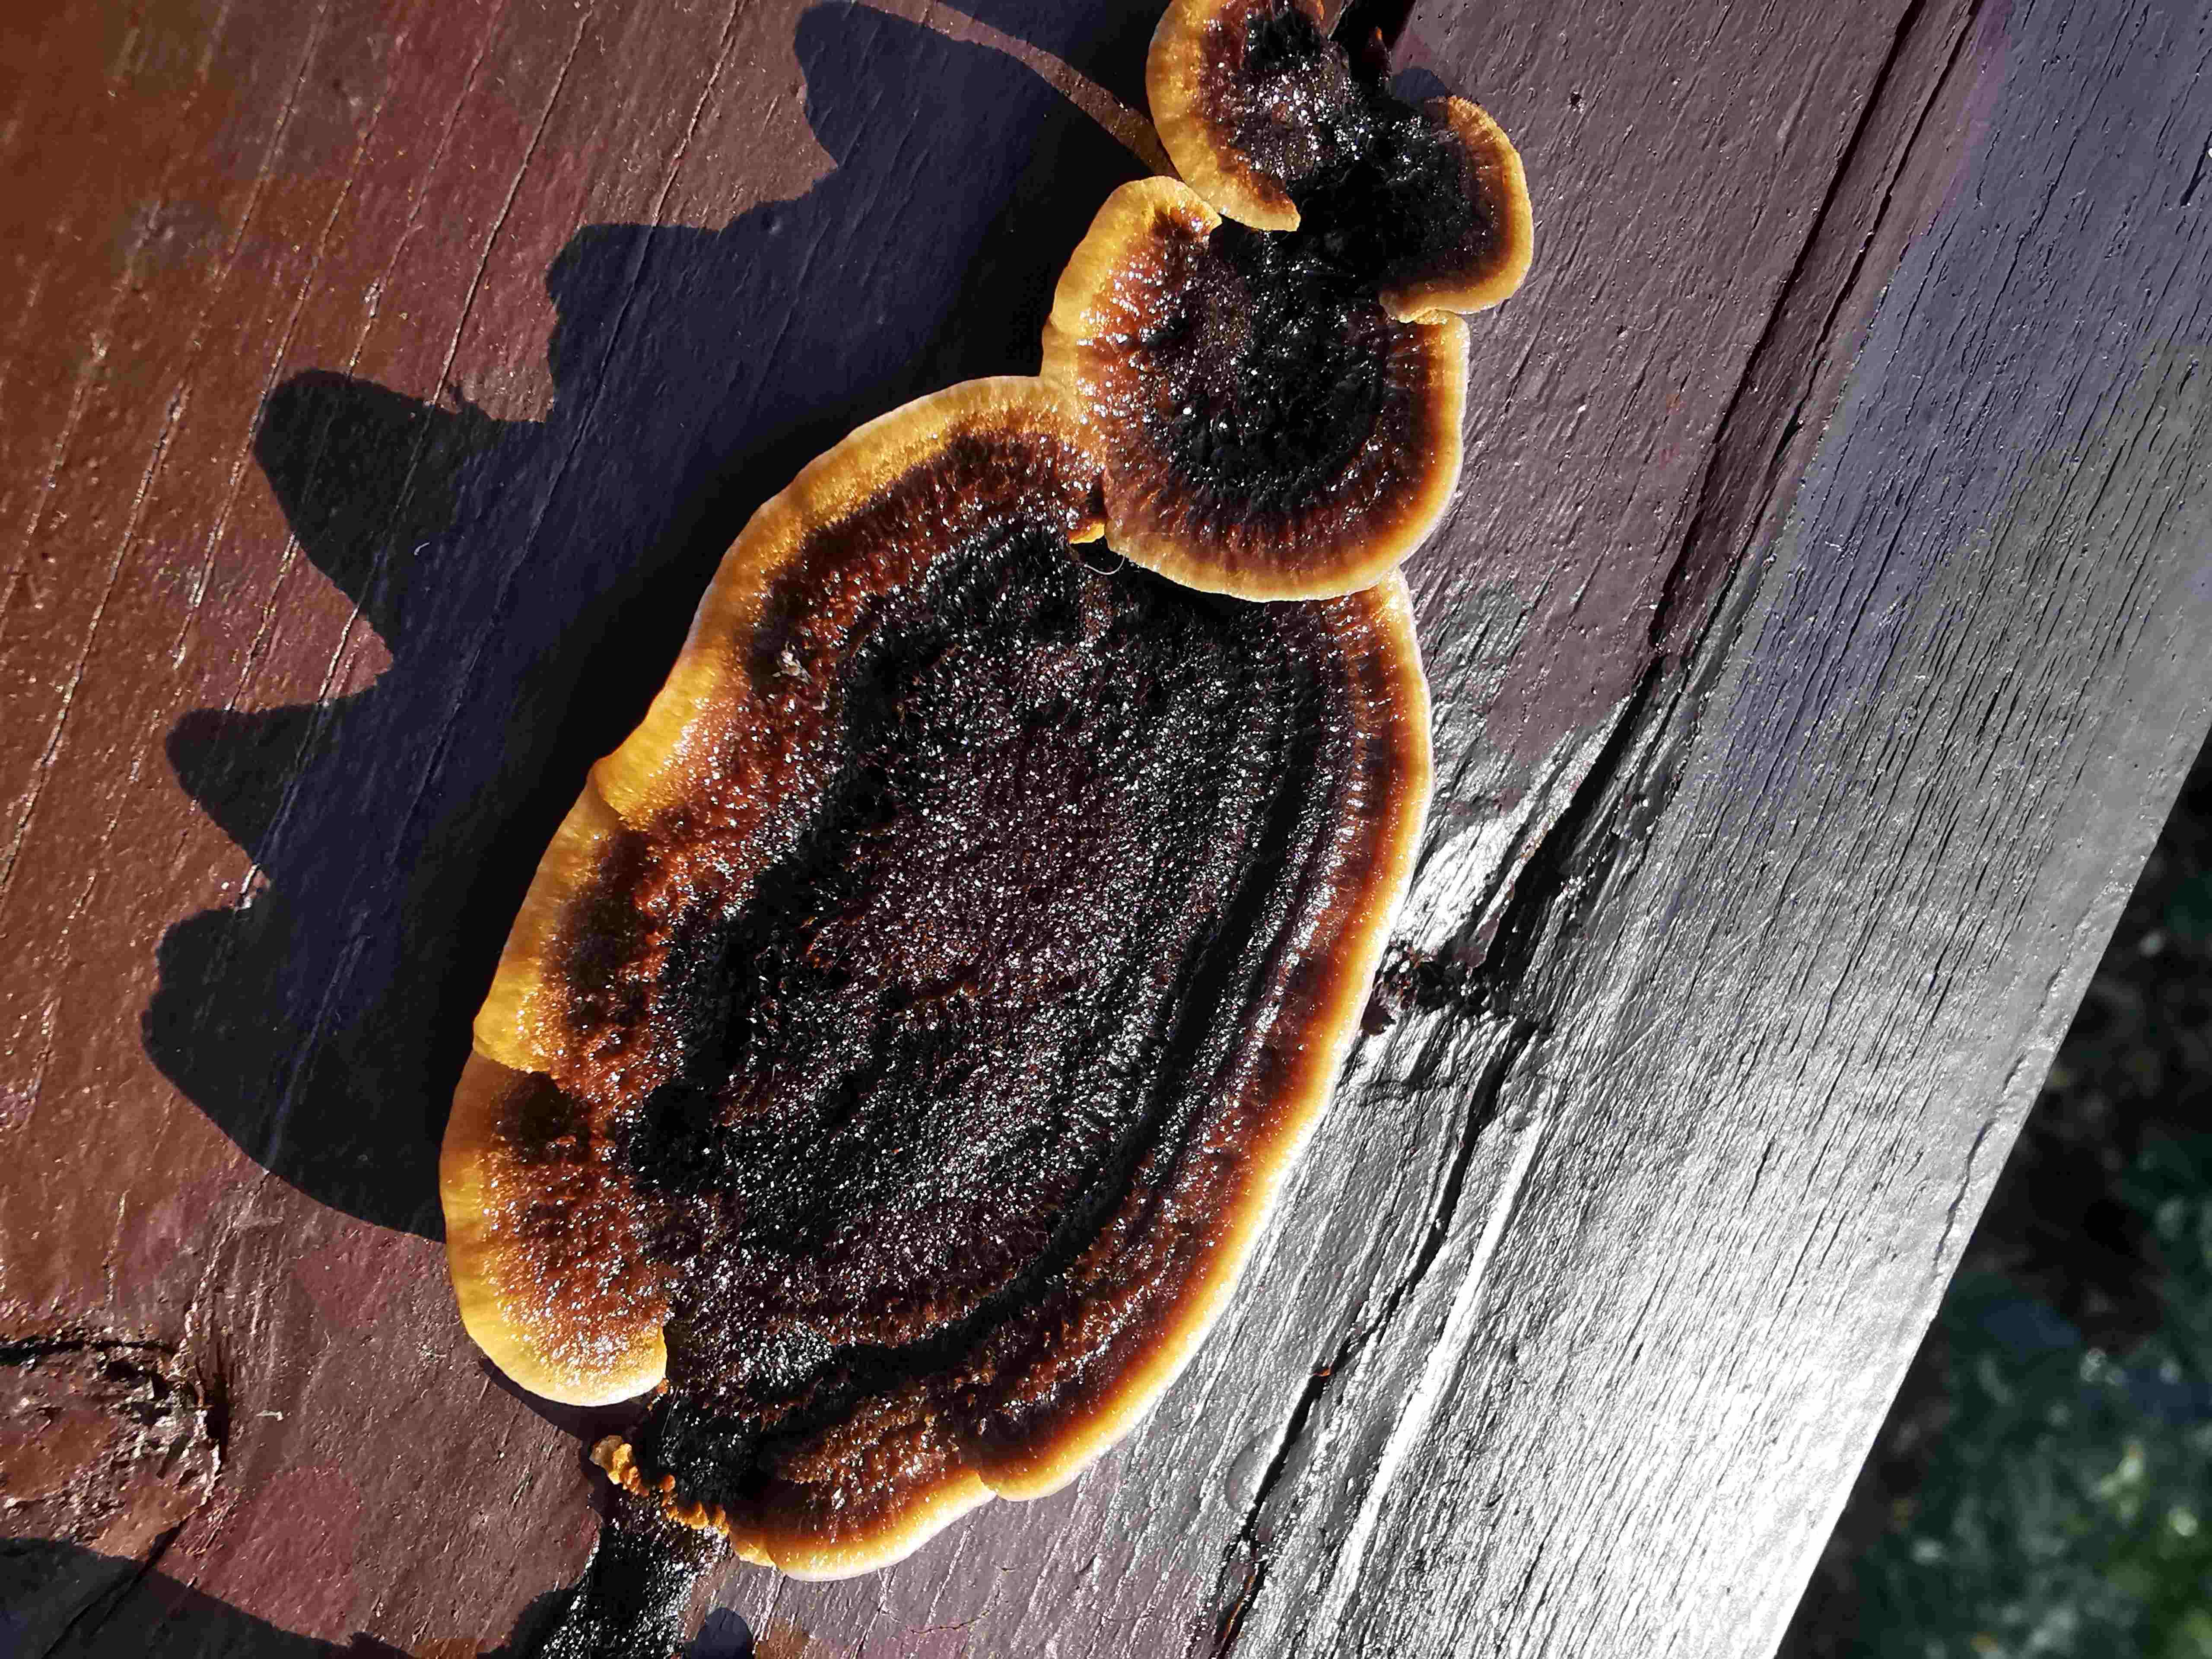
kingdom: Fungi
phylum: Basidiomycota
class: Agaricomycetes
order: Gloeophyllales
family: Gloeophyllaceae
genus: Gloeophyllum
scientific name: Gloeophyllum sepiarium
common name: fyrre-korkhat
